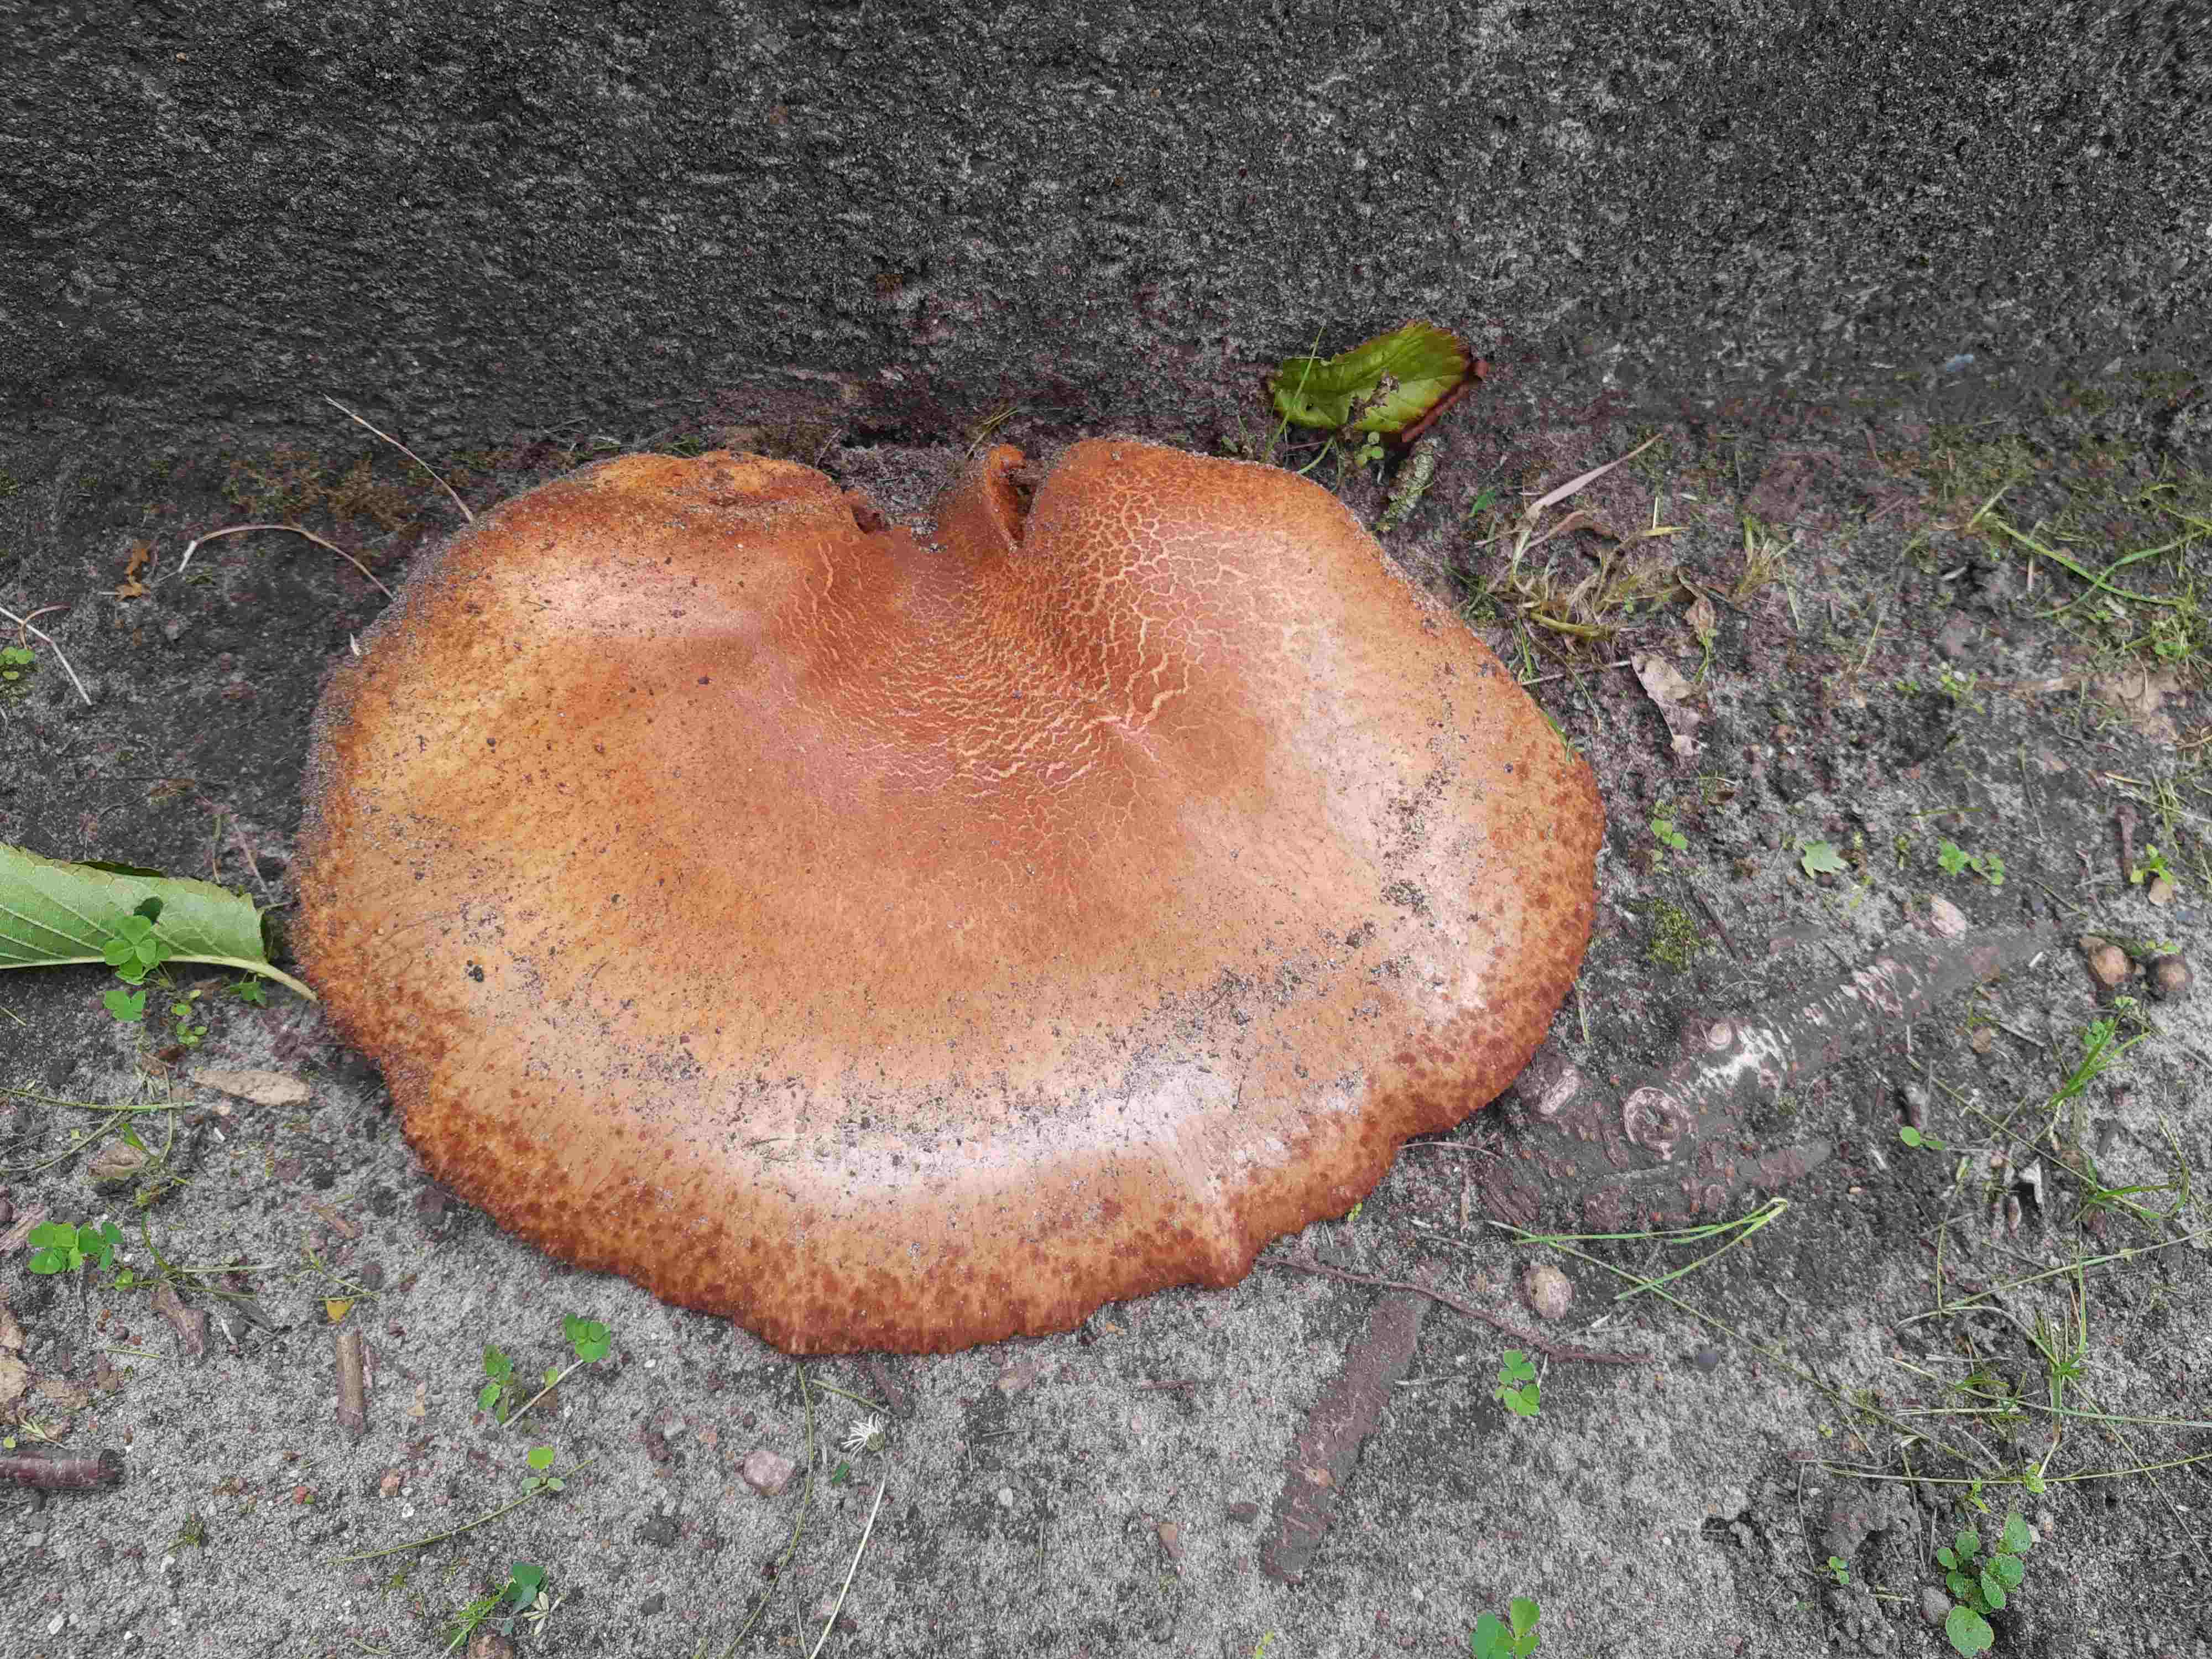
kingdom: Fungi
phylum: Basidiomycota
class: Agaricomycetes
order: Boletales
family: Tapinellaceae
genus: Tapinella
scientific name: Tapinella atrotomentosa
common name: sortfiltet viftesvamp
